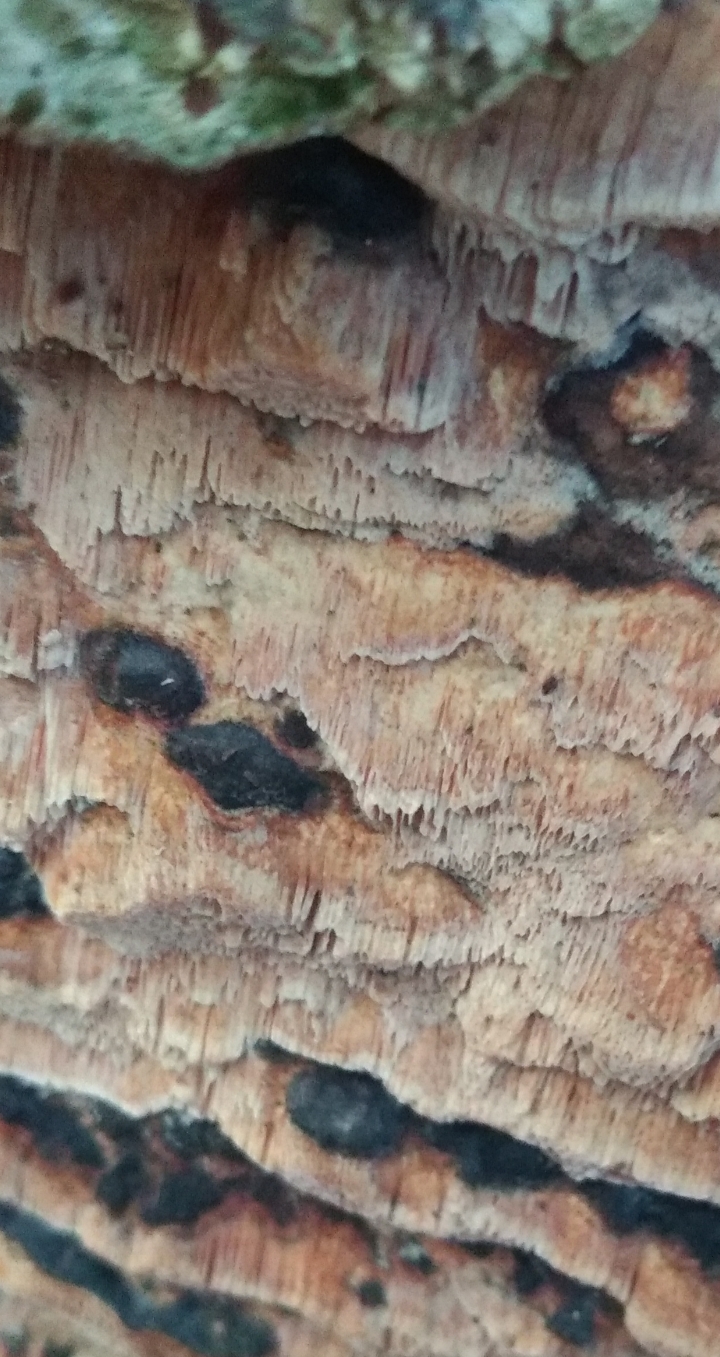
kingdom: Fungi
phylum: Basidiomycota
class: Agaricomycetes
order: Polyporales
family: Meruliaceae
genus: Mycoacia
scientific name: Mycoacia gilvescens
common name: rosa pastelporesvamp
